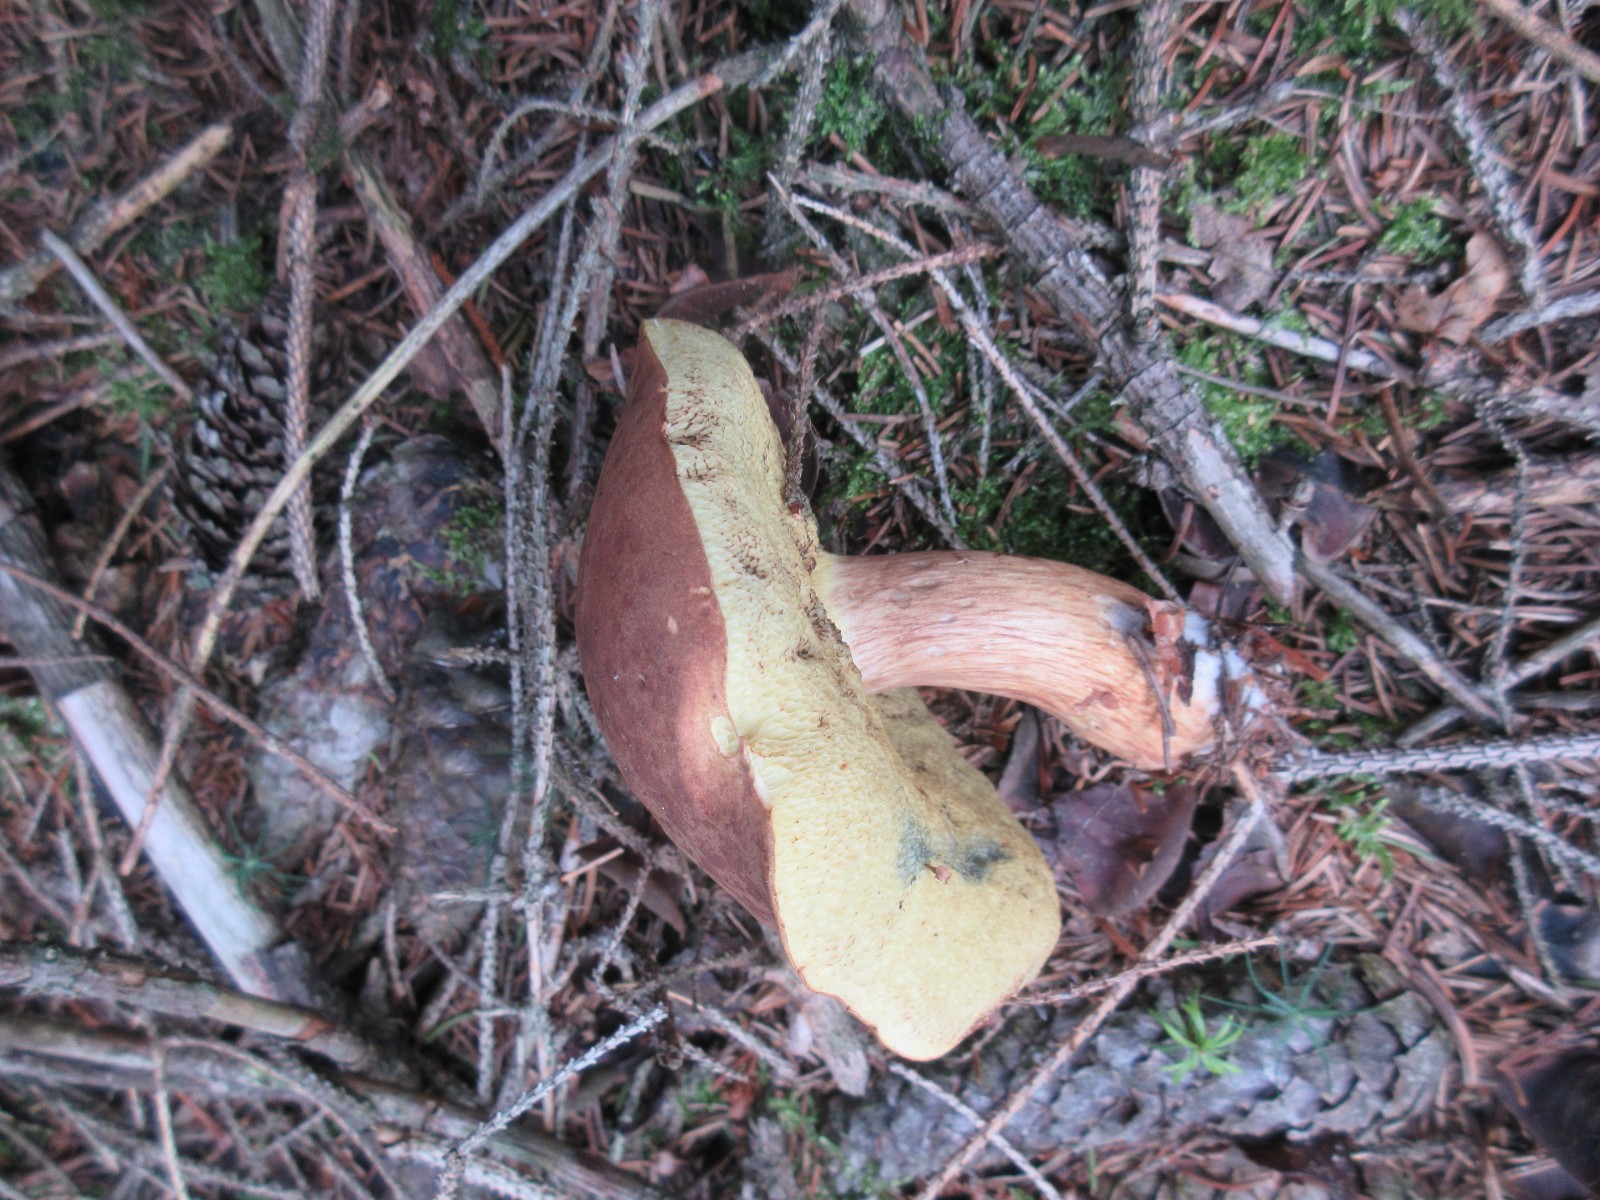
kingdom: Fungi
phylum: Basidiomycota
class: Agaricomycetes
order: Boletales
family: Boletaceae
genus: Imleria
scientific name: Imleria badia
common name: brunstokket rørhat
